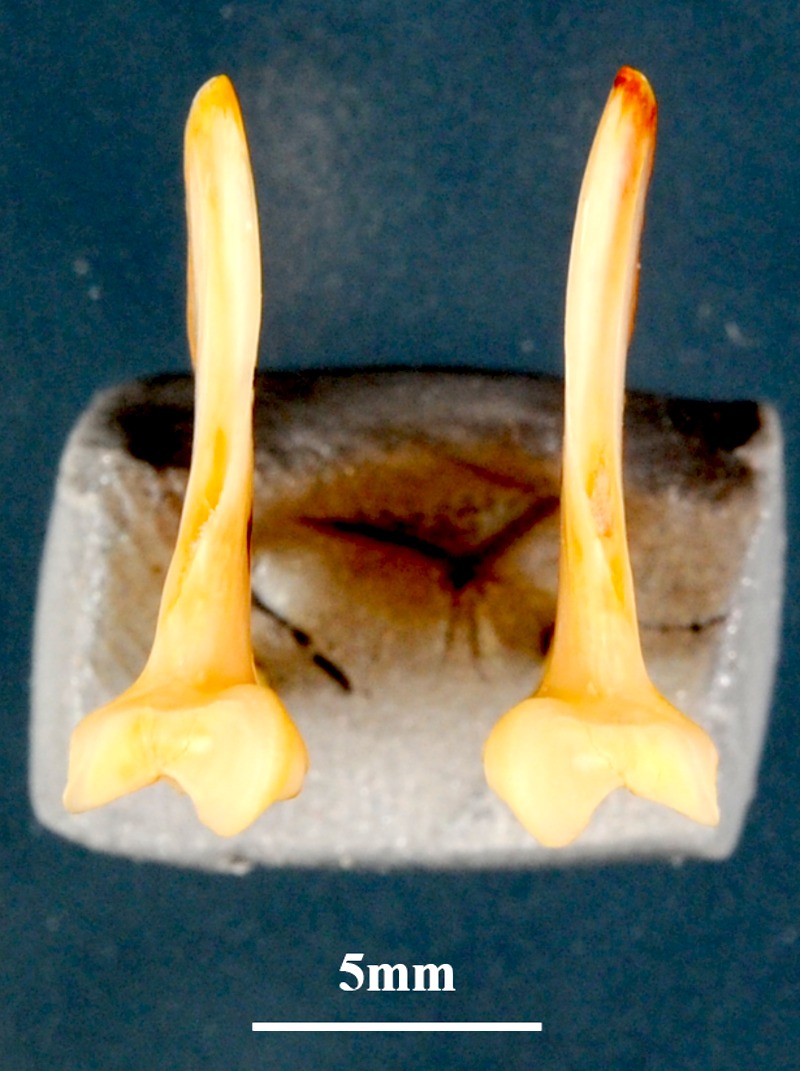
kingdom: Animalia
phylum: Chordata
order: Perciformes
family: Serranidae
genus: Mycteroperca
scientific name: Mycteroperca rubra
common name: Comb grouper
